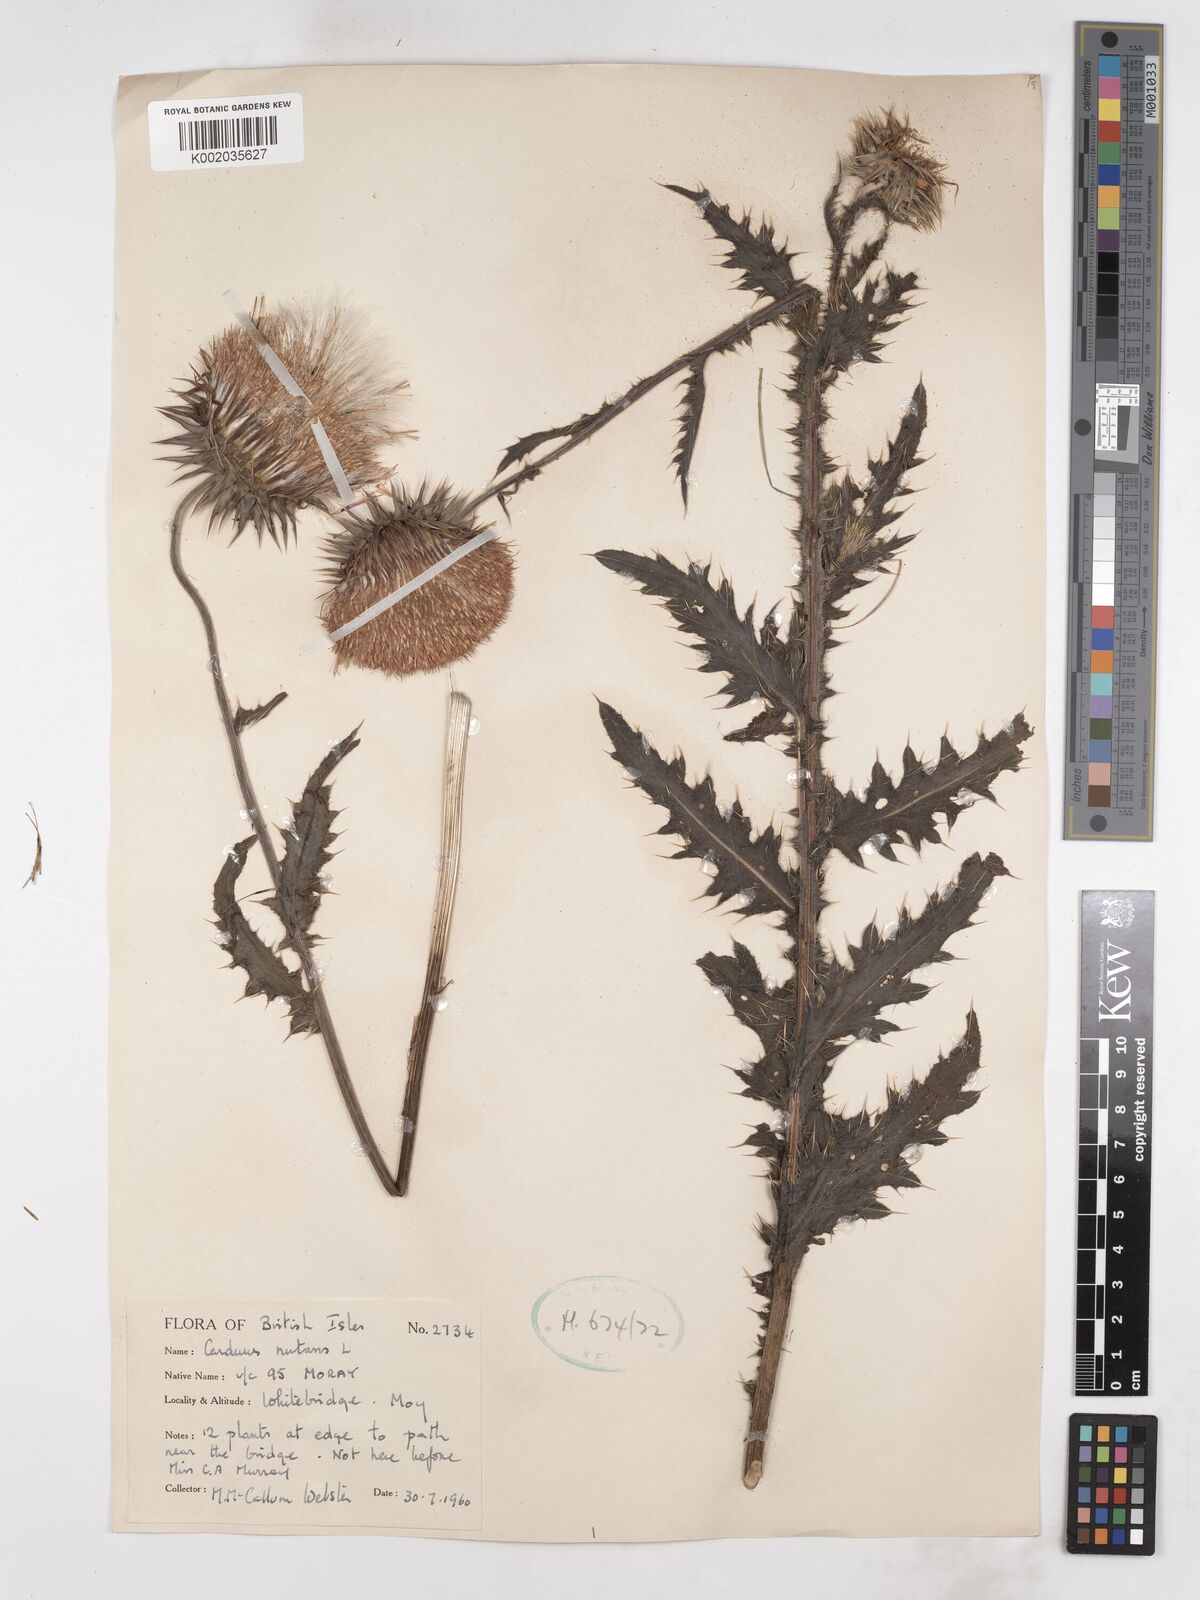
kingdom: Plantae
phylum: Tracheophyta
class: Magnoliopsida
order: Asterales
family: Asteraceae
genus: Carduus
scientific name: Carduus nutans
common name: Musk thistle
